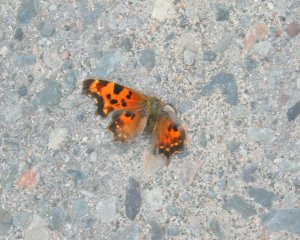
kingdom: Animalia
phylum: Arthropoda
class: Insecta
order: Lepidoptera
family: Nymphalidae
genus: Polygonia
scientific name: Polygonia faunus
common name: Green Comma
